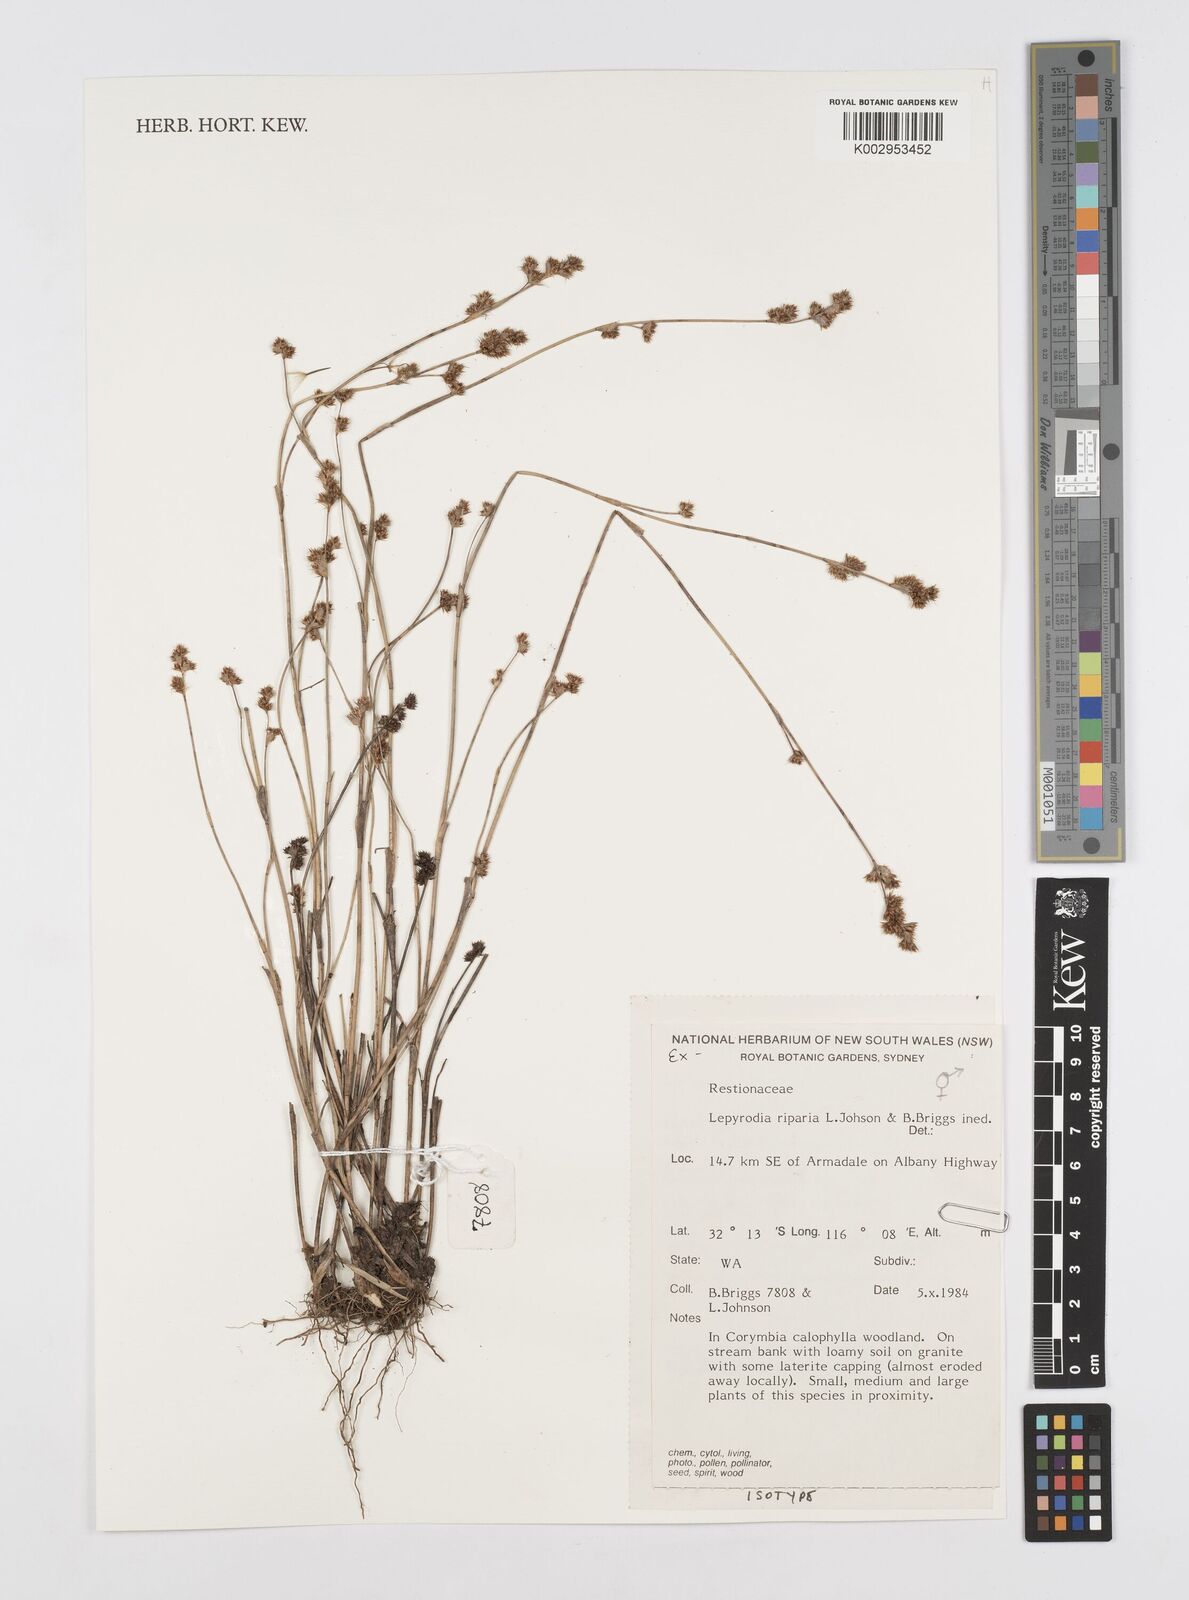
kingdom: Plantae
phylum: Tracheophyta
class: Liliopsida
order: Poales
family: Restionaceae
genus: Lepyrodia
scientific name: Lepyrodia riparia
